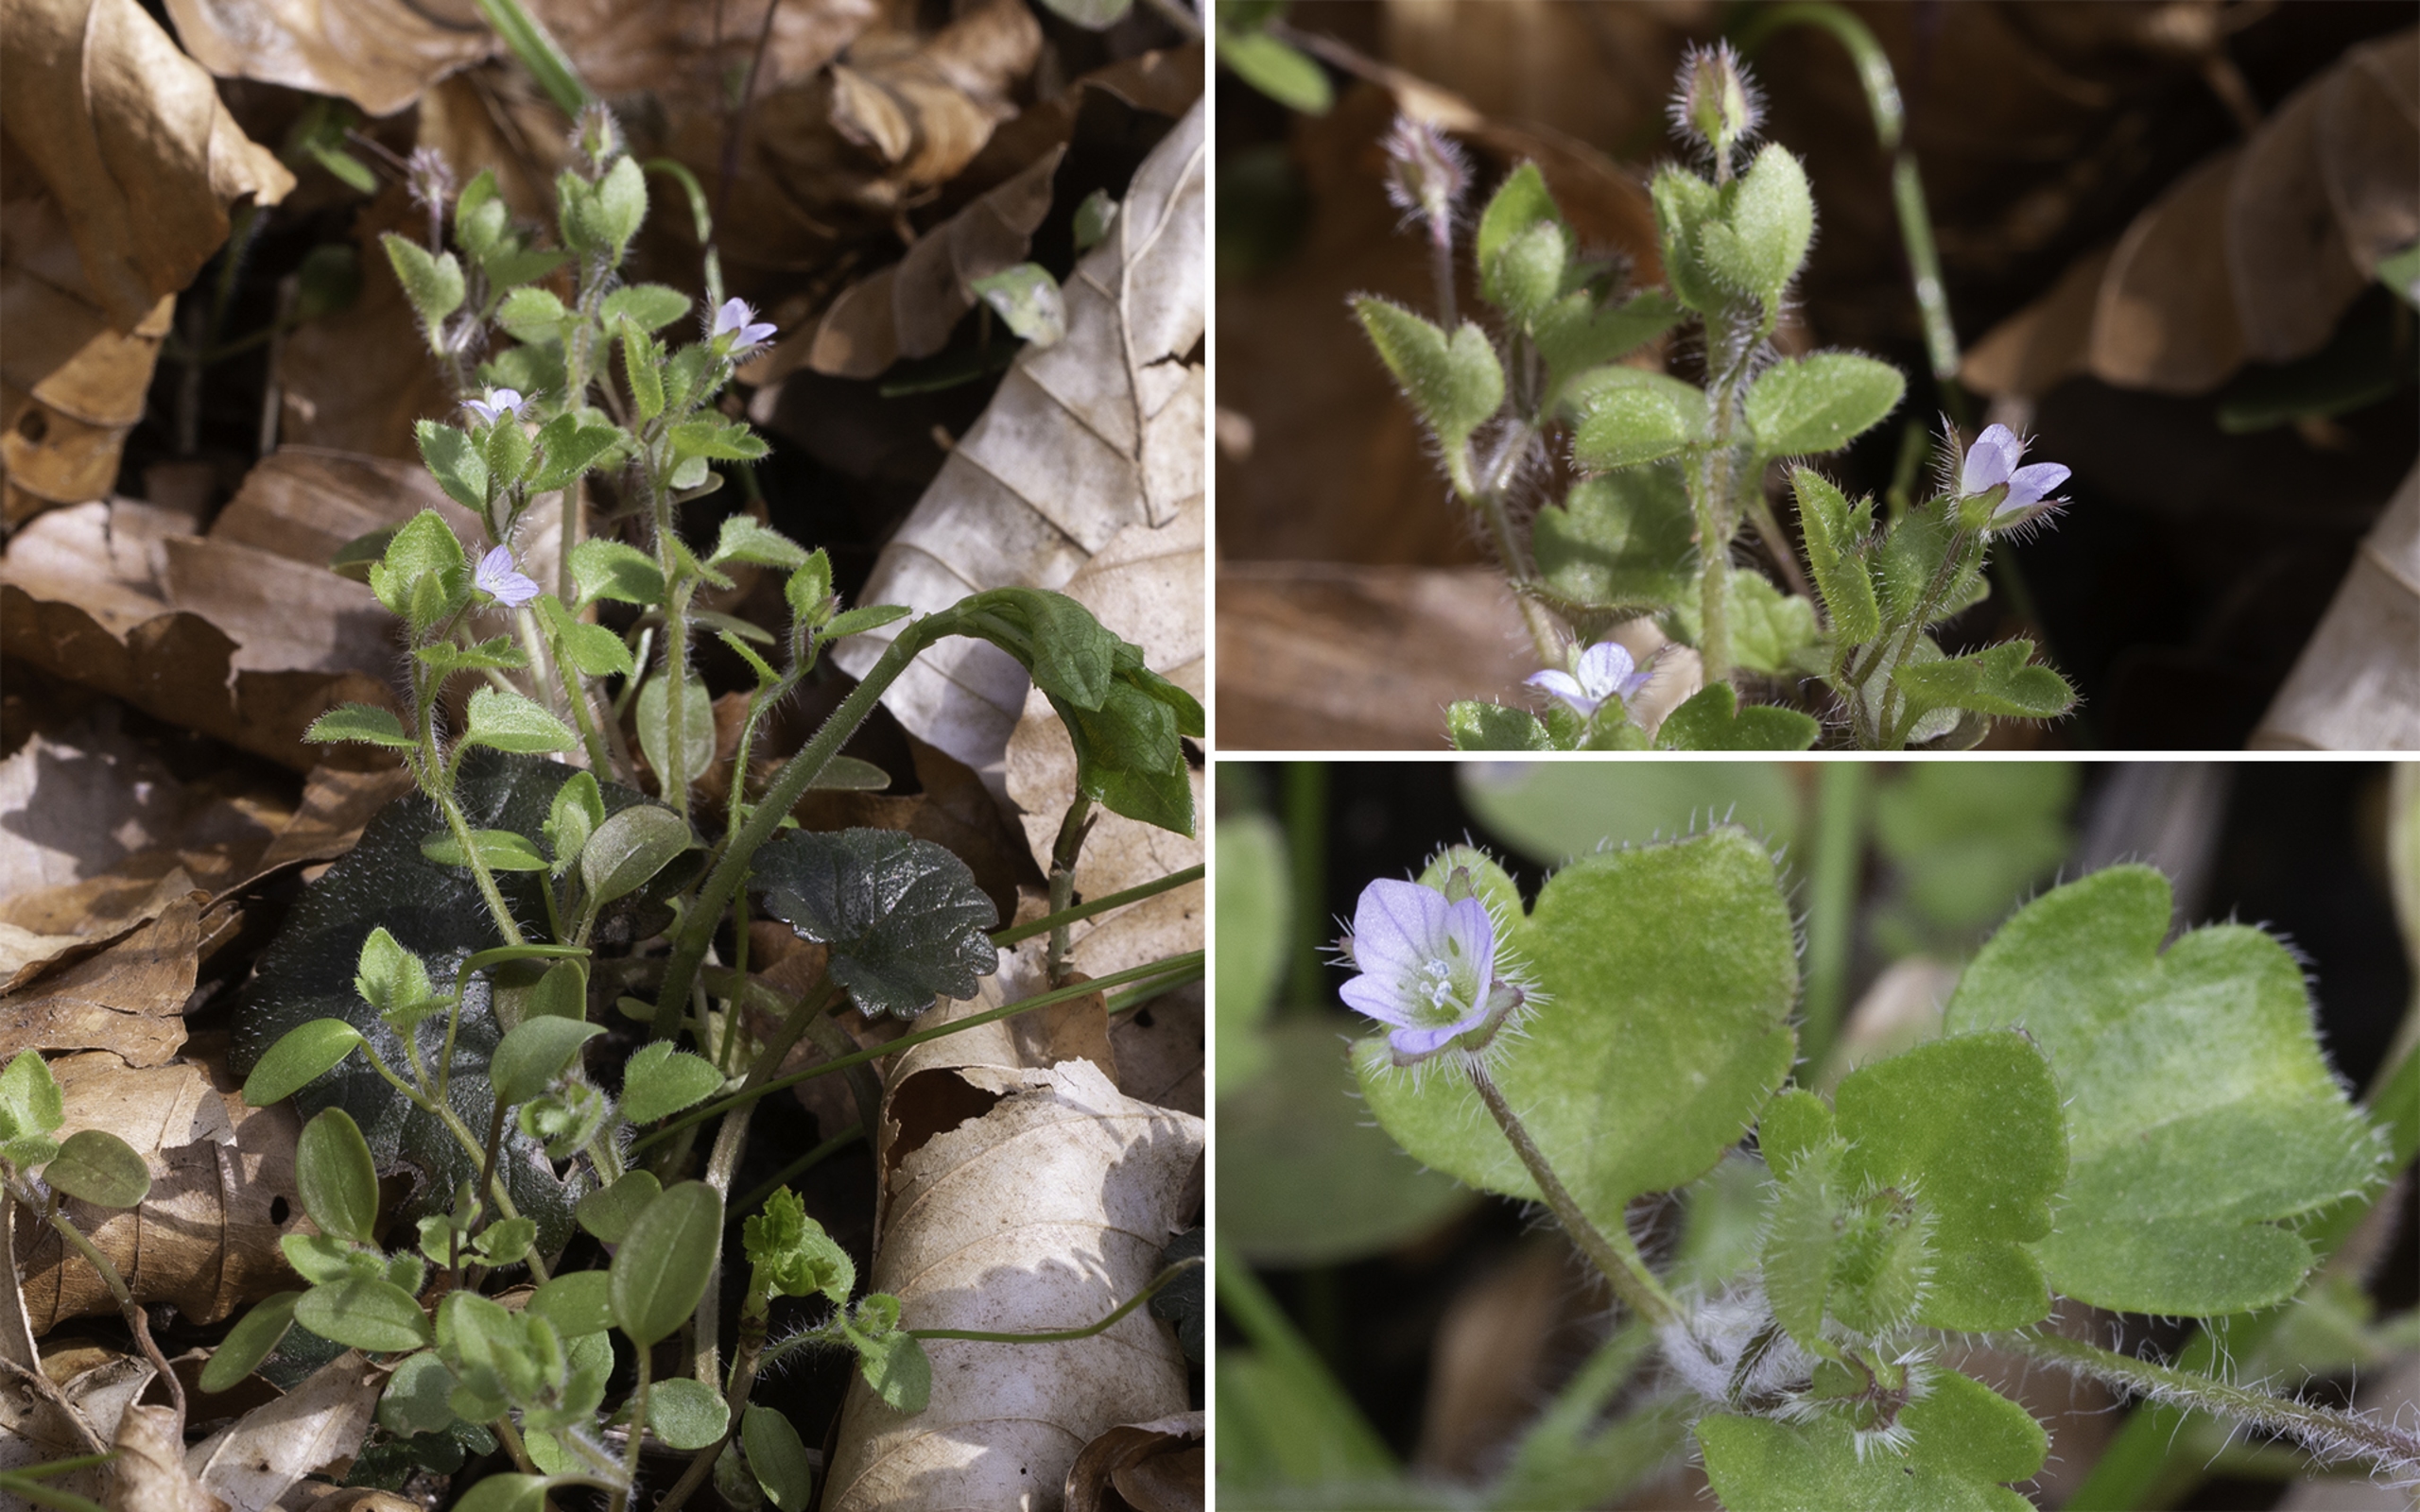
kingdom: Plantae
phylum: Tracheophyta
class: Magnoliopsida
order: Lamiales
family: Plantaginaceae
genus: Veronica
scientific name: Veronica hederifolia
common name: Vedbend-ærenpris
